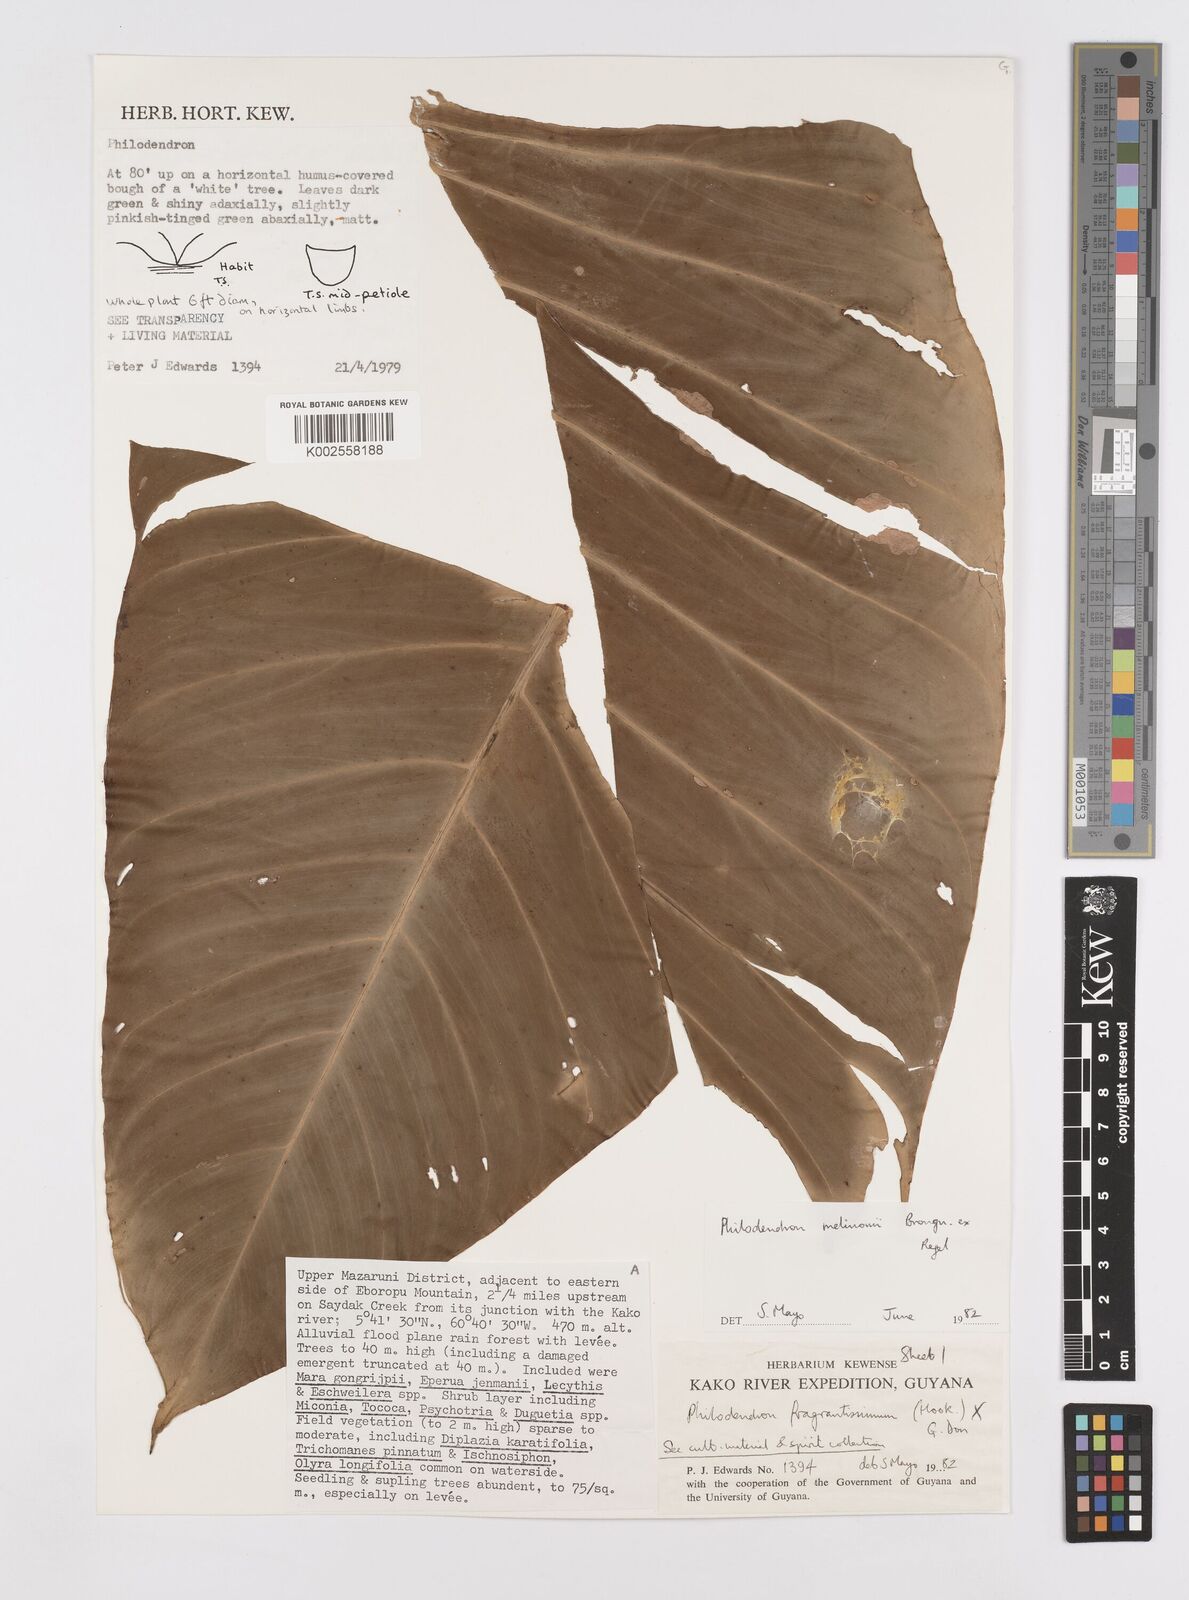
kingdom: Plantae
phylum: Tracheophyta
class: Liliopsida
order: Alismatales
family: Araceae
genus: Philodendron
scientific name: Philodendron melinonii
